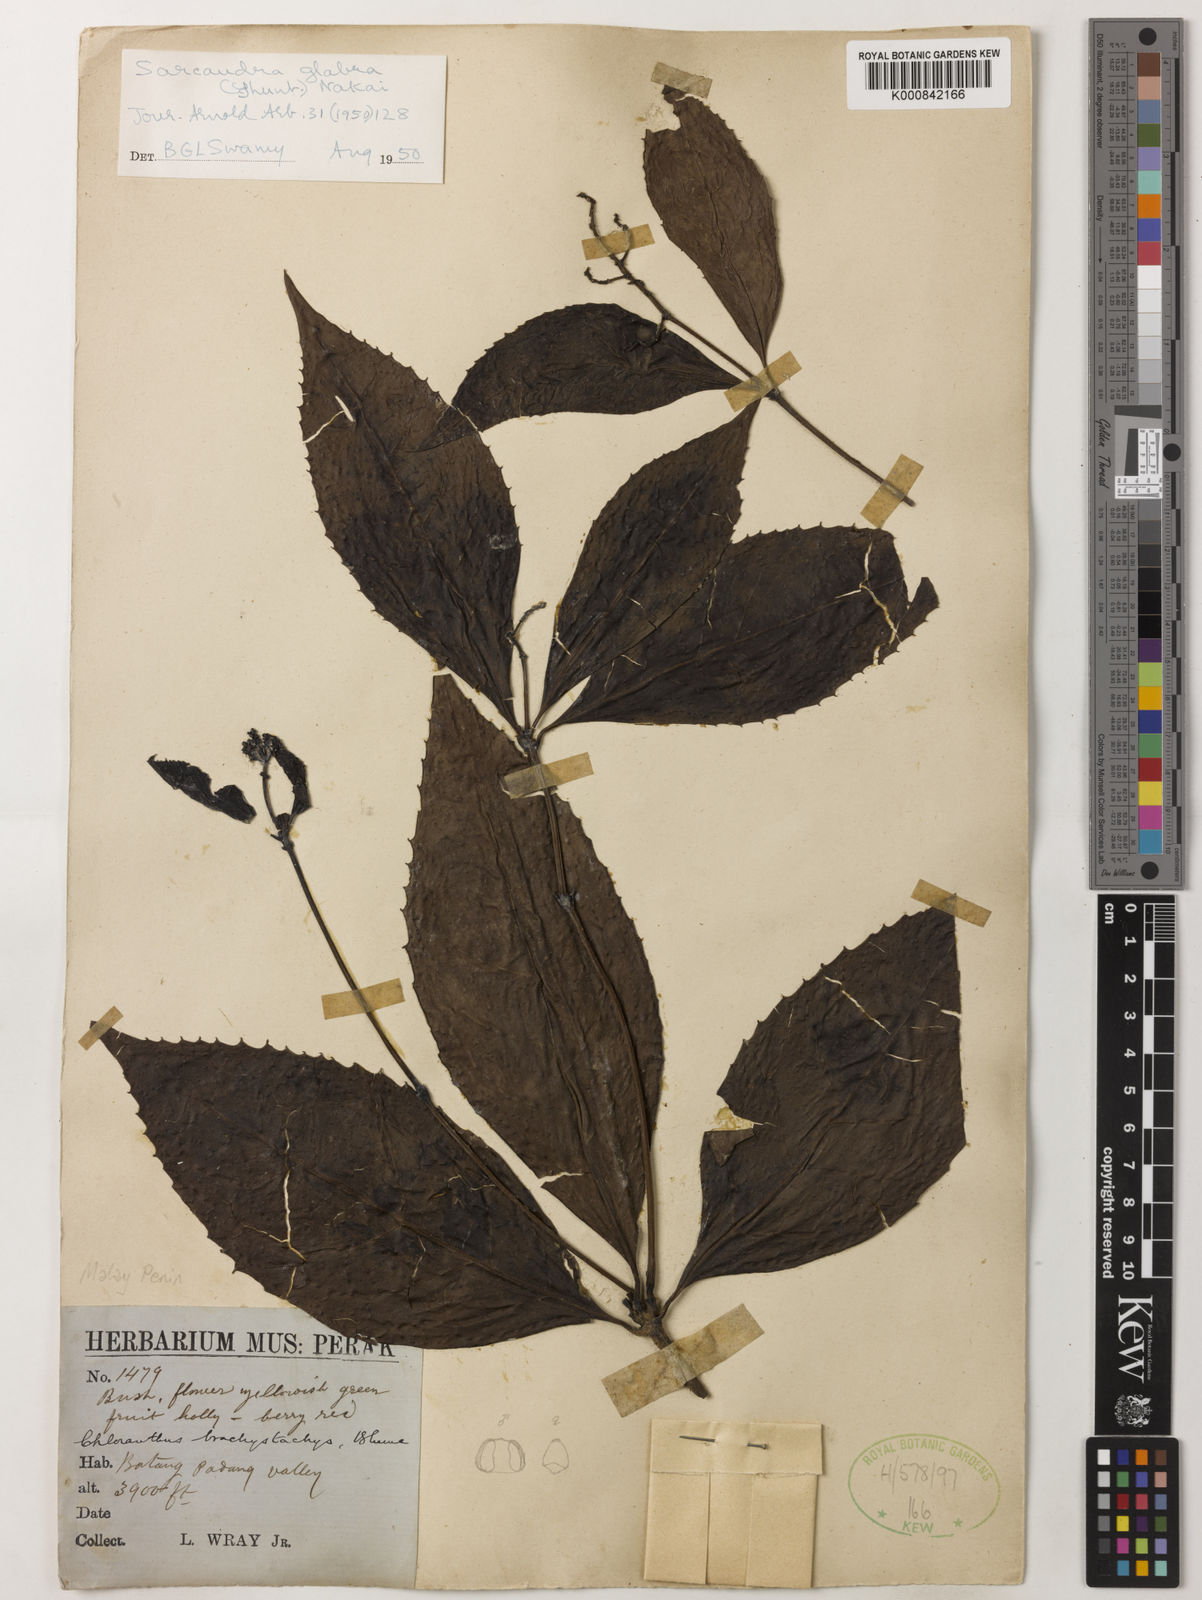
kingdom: Plantae
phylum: Tracheophyta
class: Magnoliopsida
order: Chloranthales
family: Chloranthaceae
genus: Sarcandra
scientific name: Sarcandra glabra
